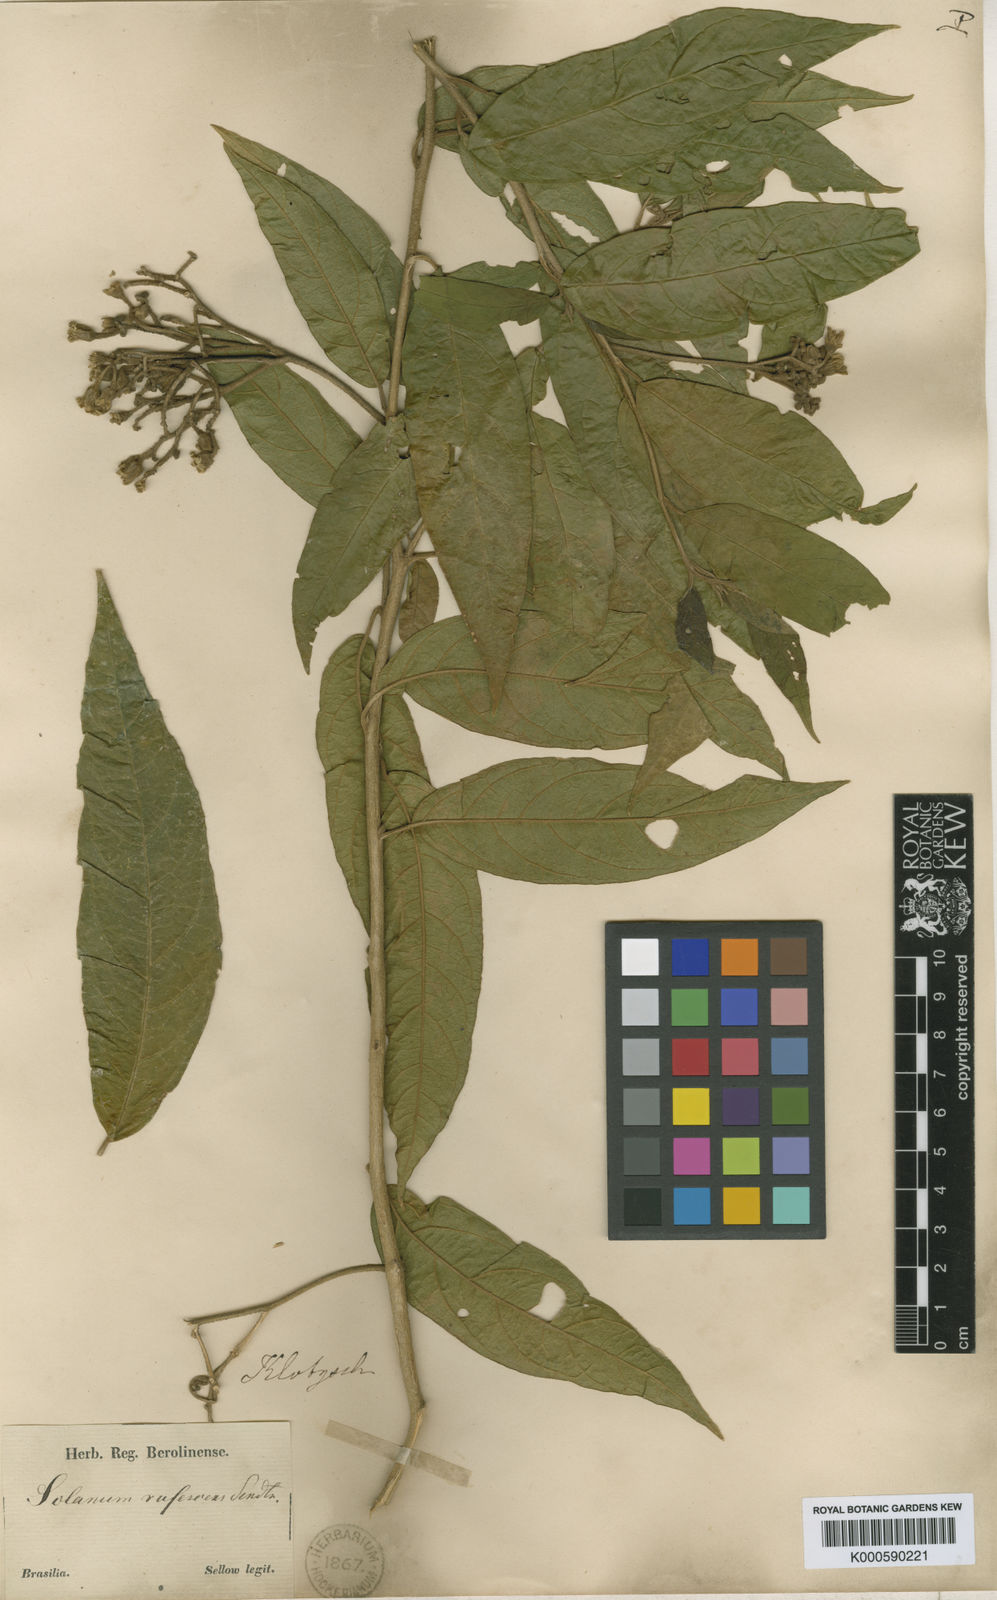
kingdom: Plantae
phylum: Tracheophyta
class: Magnoliopsida
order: Solanales
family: Solanaceae
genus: Solanum
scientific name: Solanum rufescens
